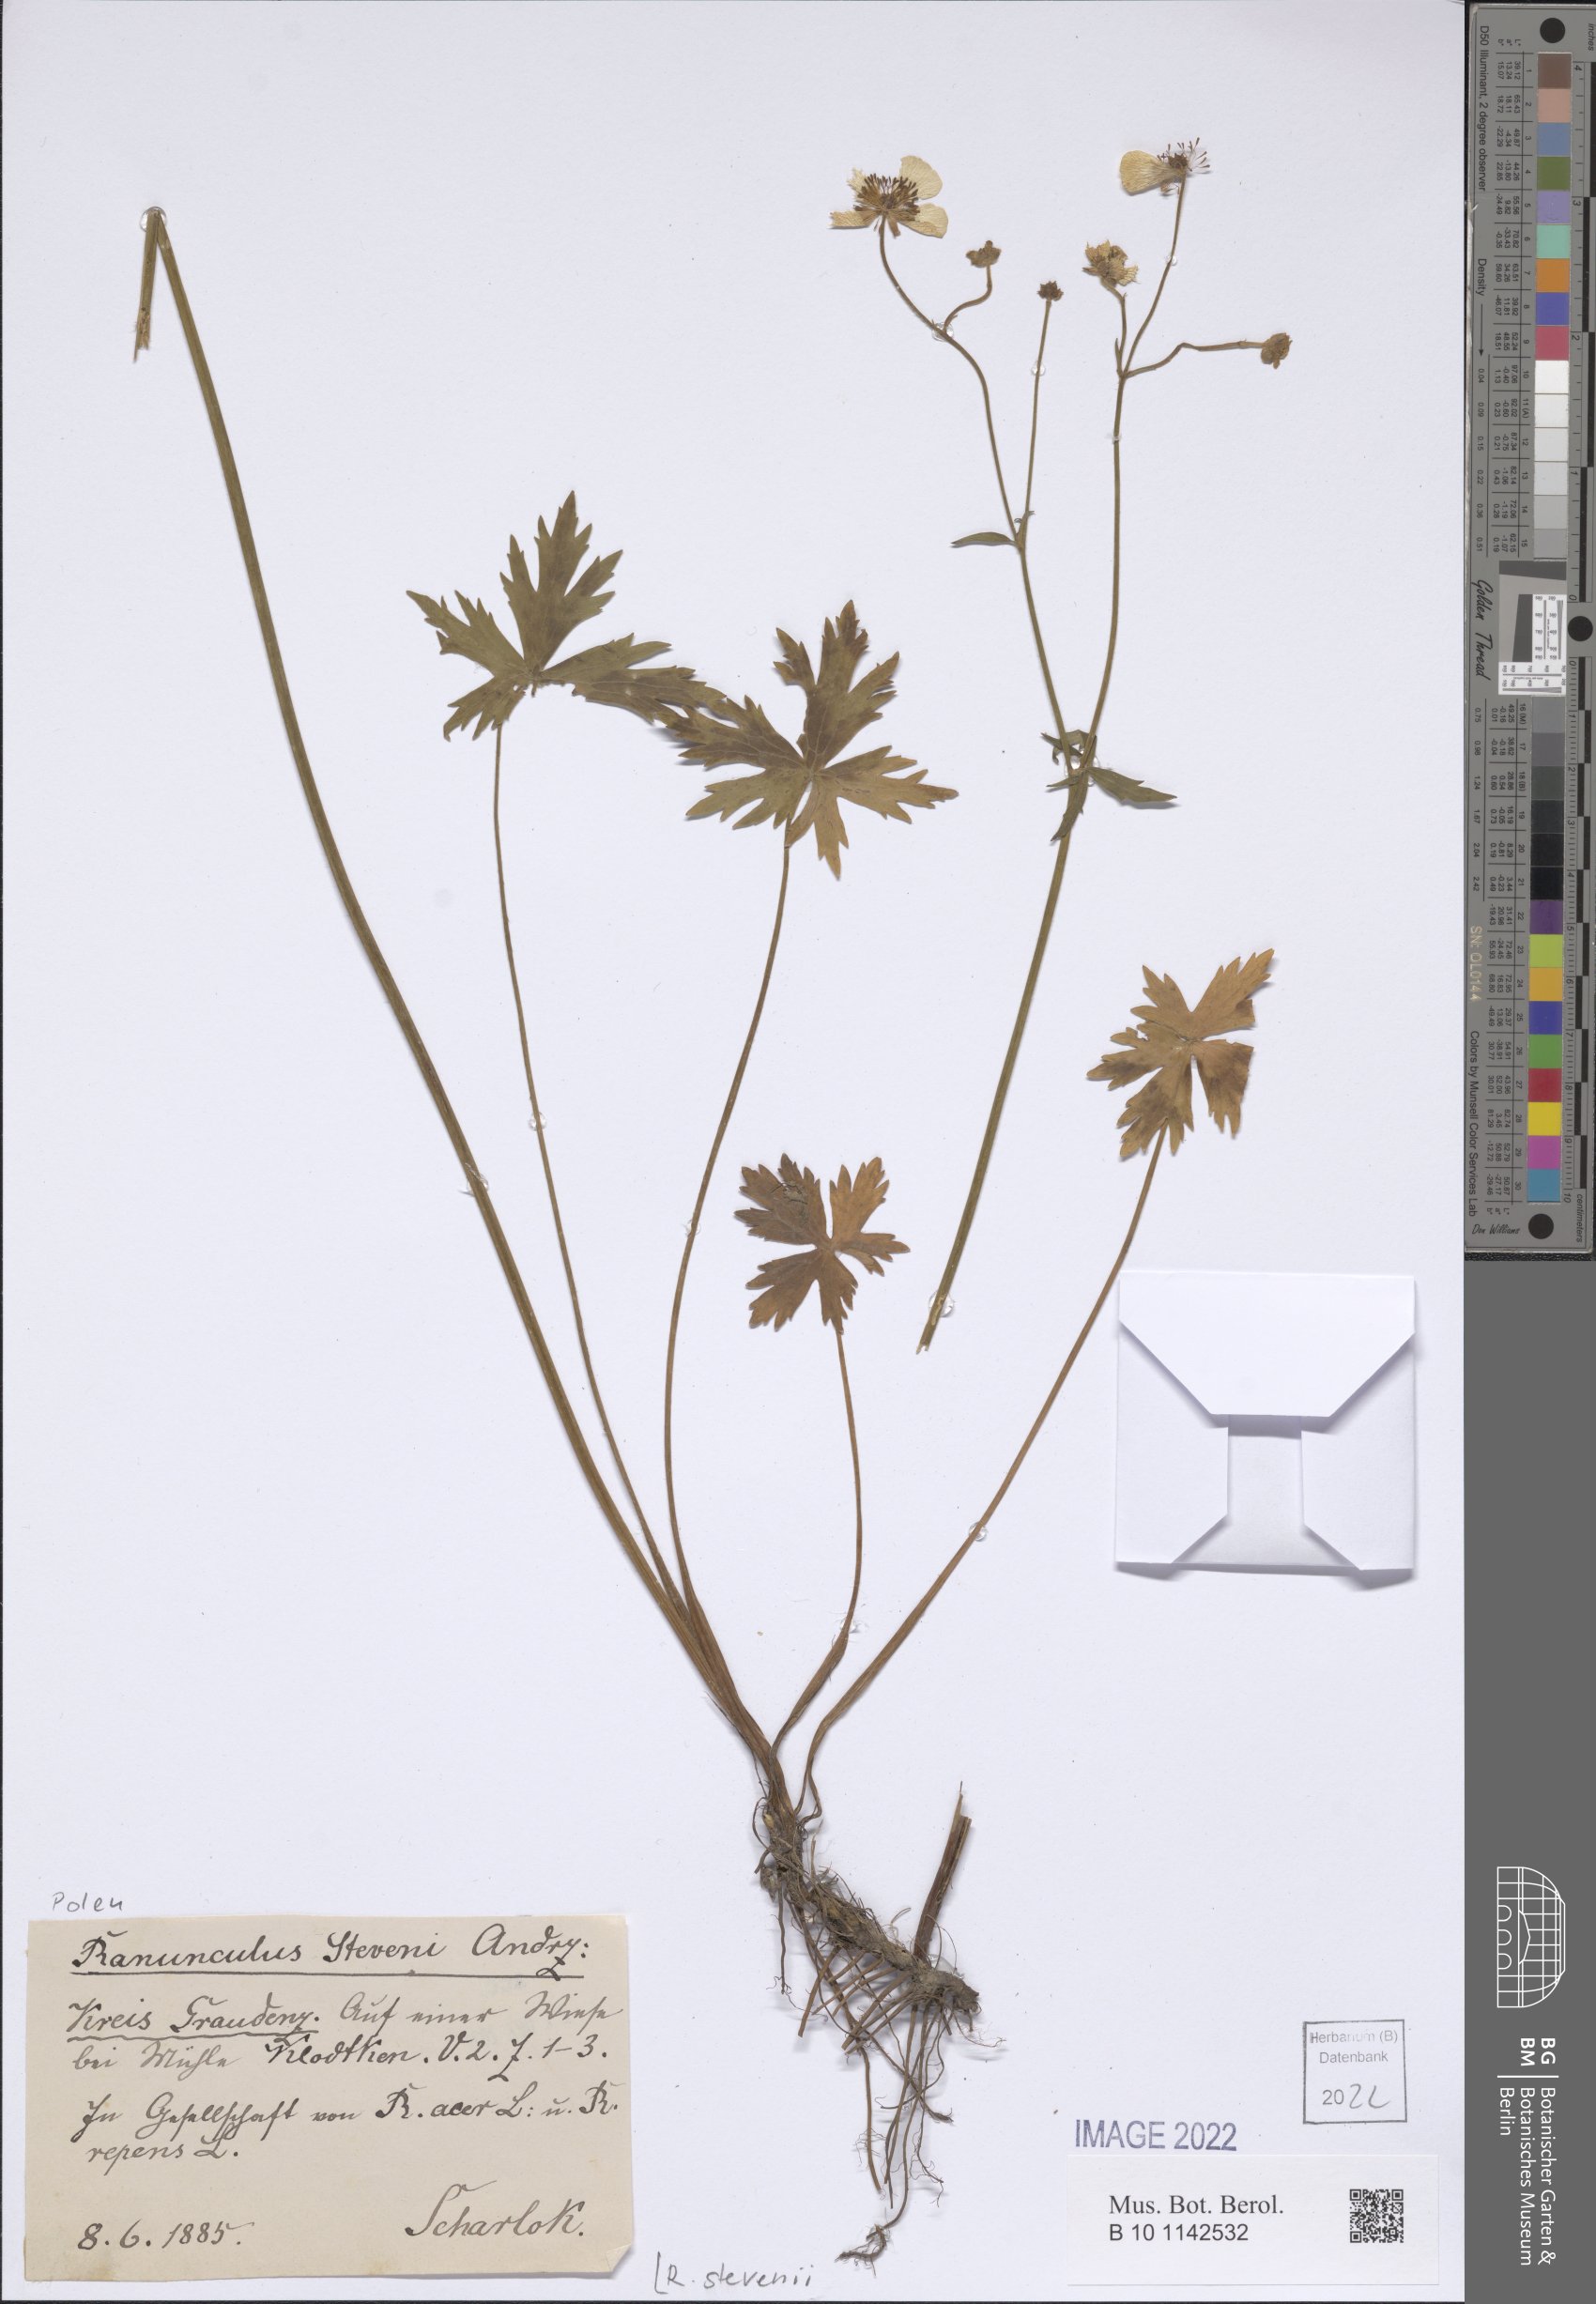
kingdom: Plantae
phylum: Tracheophyta
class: Magnoliopsida
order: Ranunculales
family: Ranunculaceae
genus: Ranunculus
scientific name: Ranunculus acris
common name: Meadow buttercup
